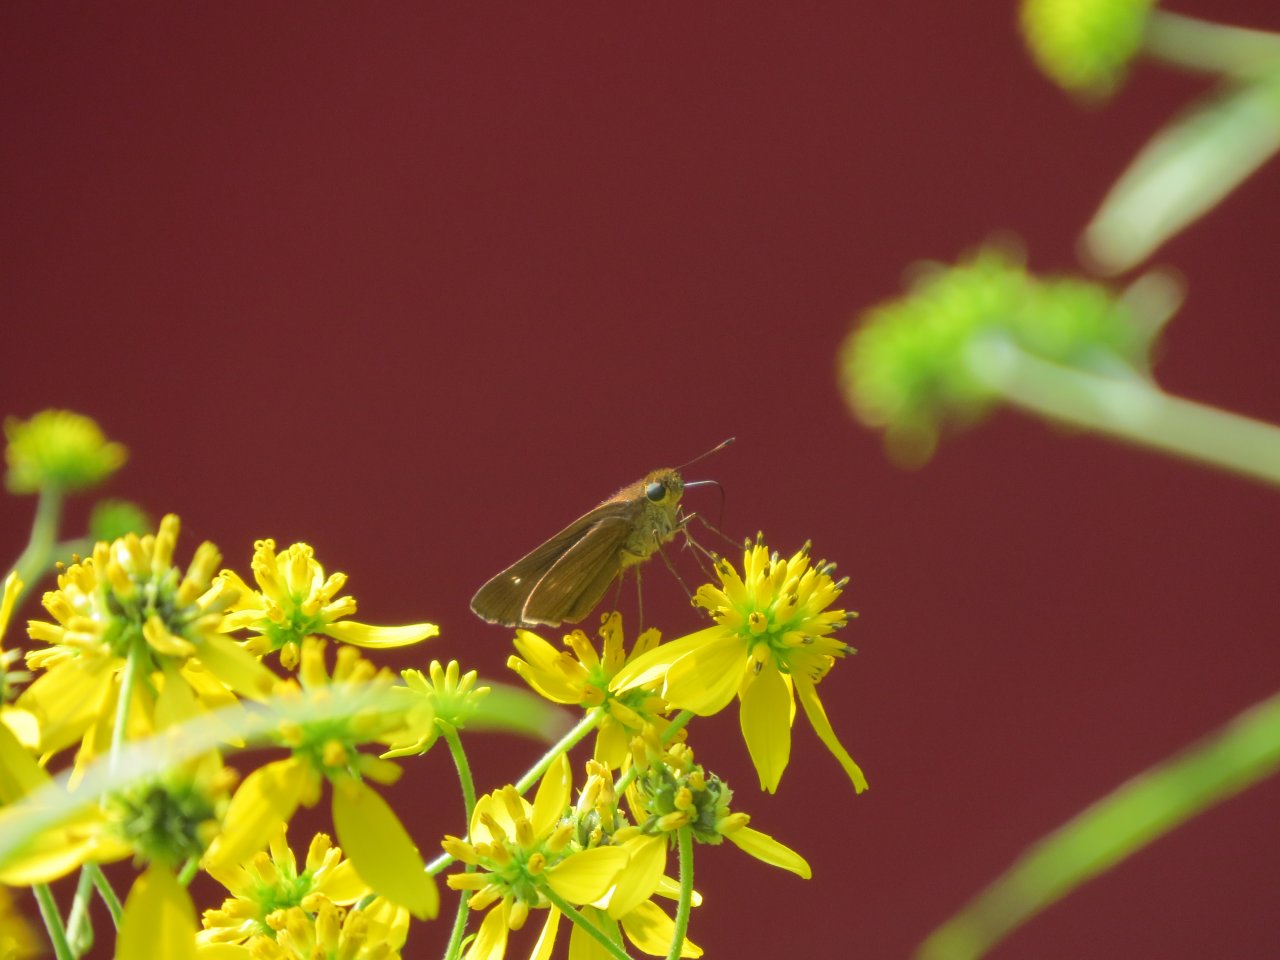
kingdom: Animalia
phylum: Arthropoda
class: Insecta
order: Lepidoptera
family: Hesperiidae
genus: Panoquina
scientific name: Panoquina ocola
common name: Ocola Skipper
